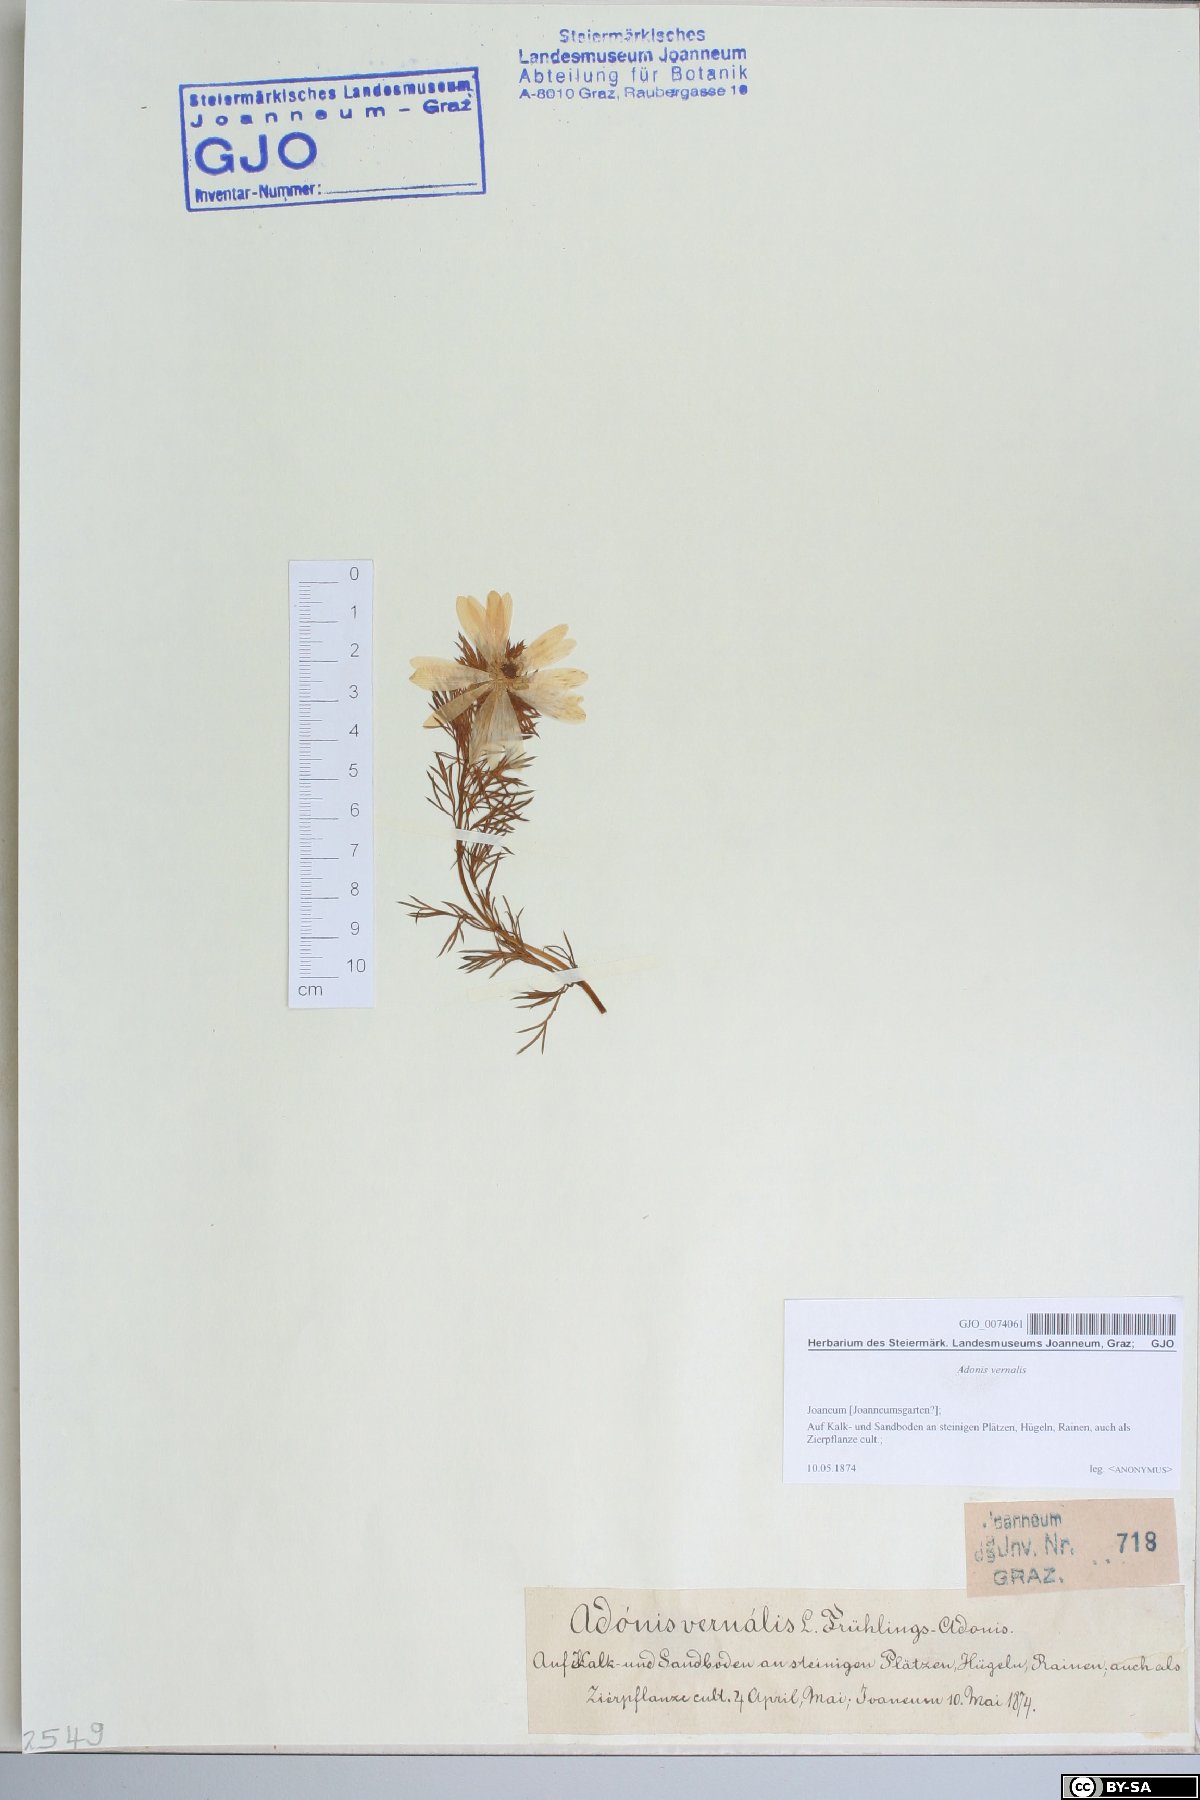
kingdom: Plantae
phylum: Tracheophyta
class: Magnoliopsida
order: Ranunculales
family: Ranunculaceae
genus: Adonis
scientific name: Adonis vernalis
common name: Yellow pheasants-eye
